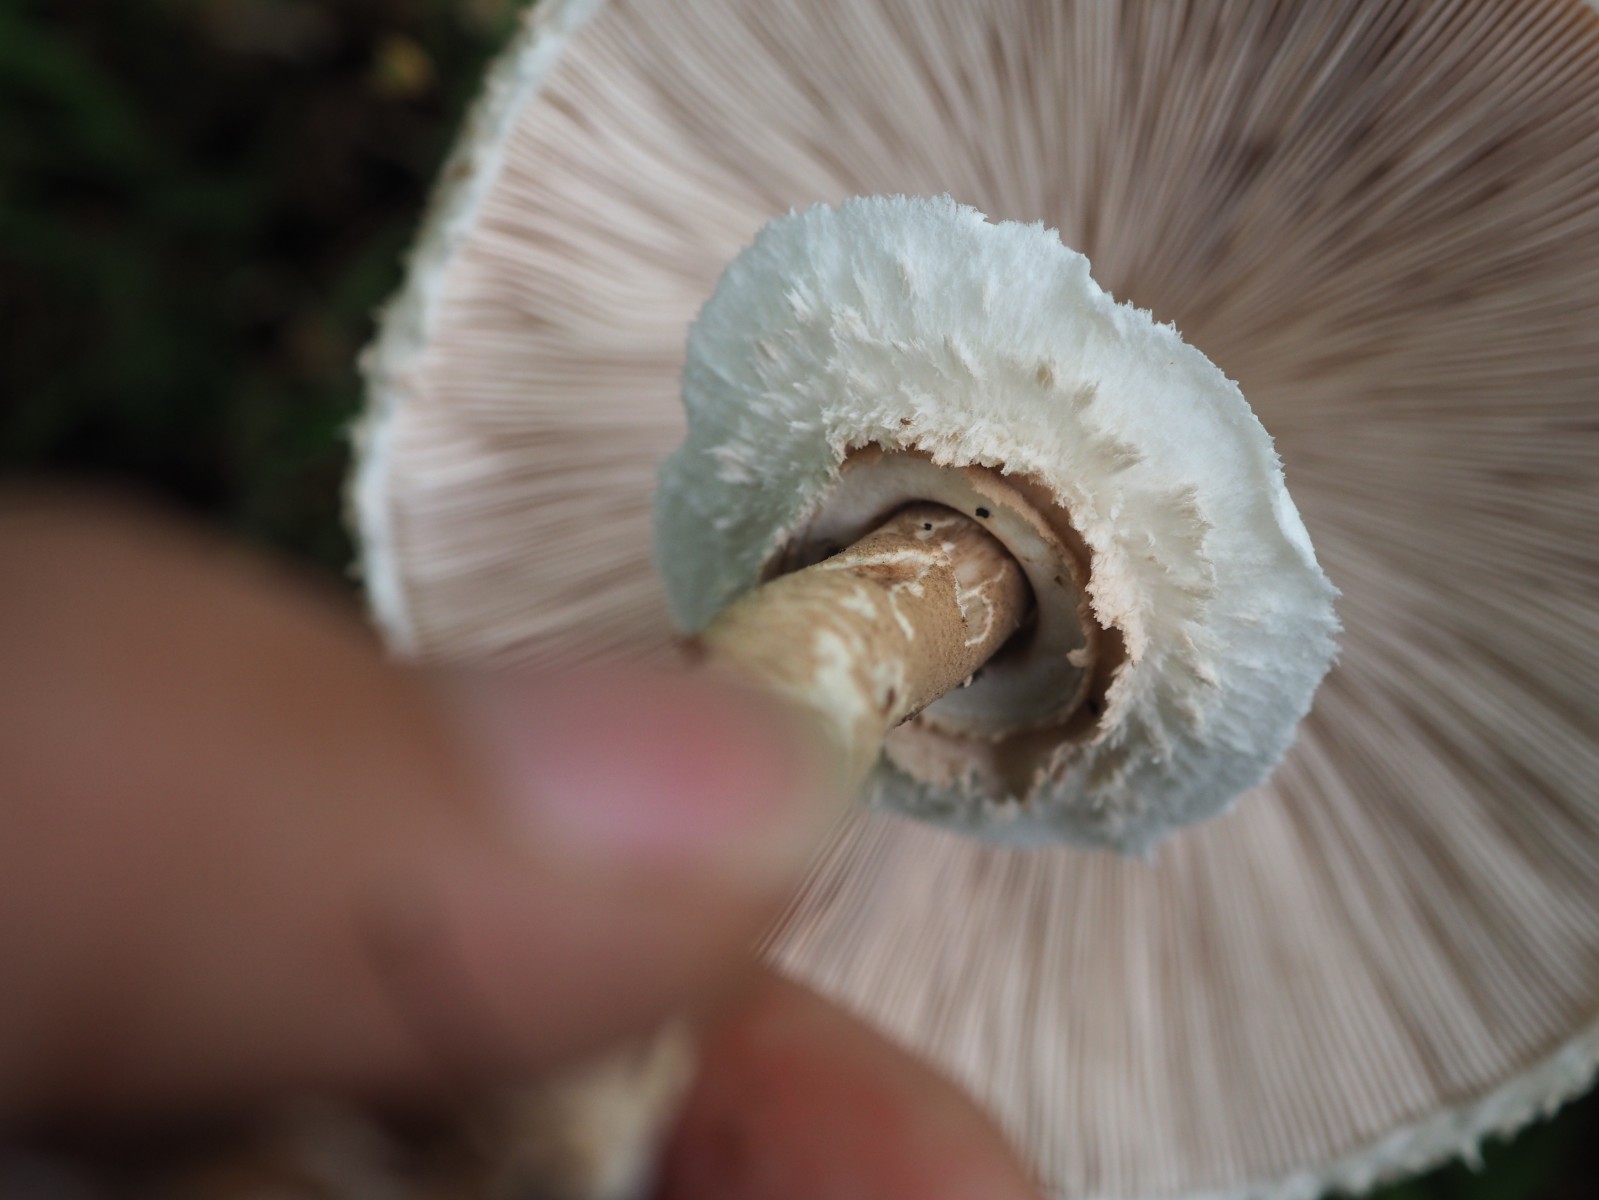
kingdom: Fungi
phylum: Basidiomycota
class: Agaricomycetes
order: Agaricales
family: Agaricaceae
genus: Macrolepiota
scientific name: Macrolepiota mastoidea
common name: puklet kæmpeparasolhat
